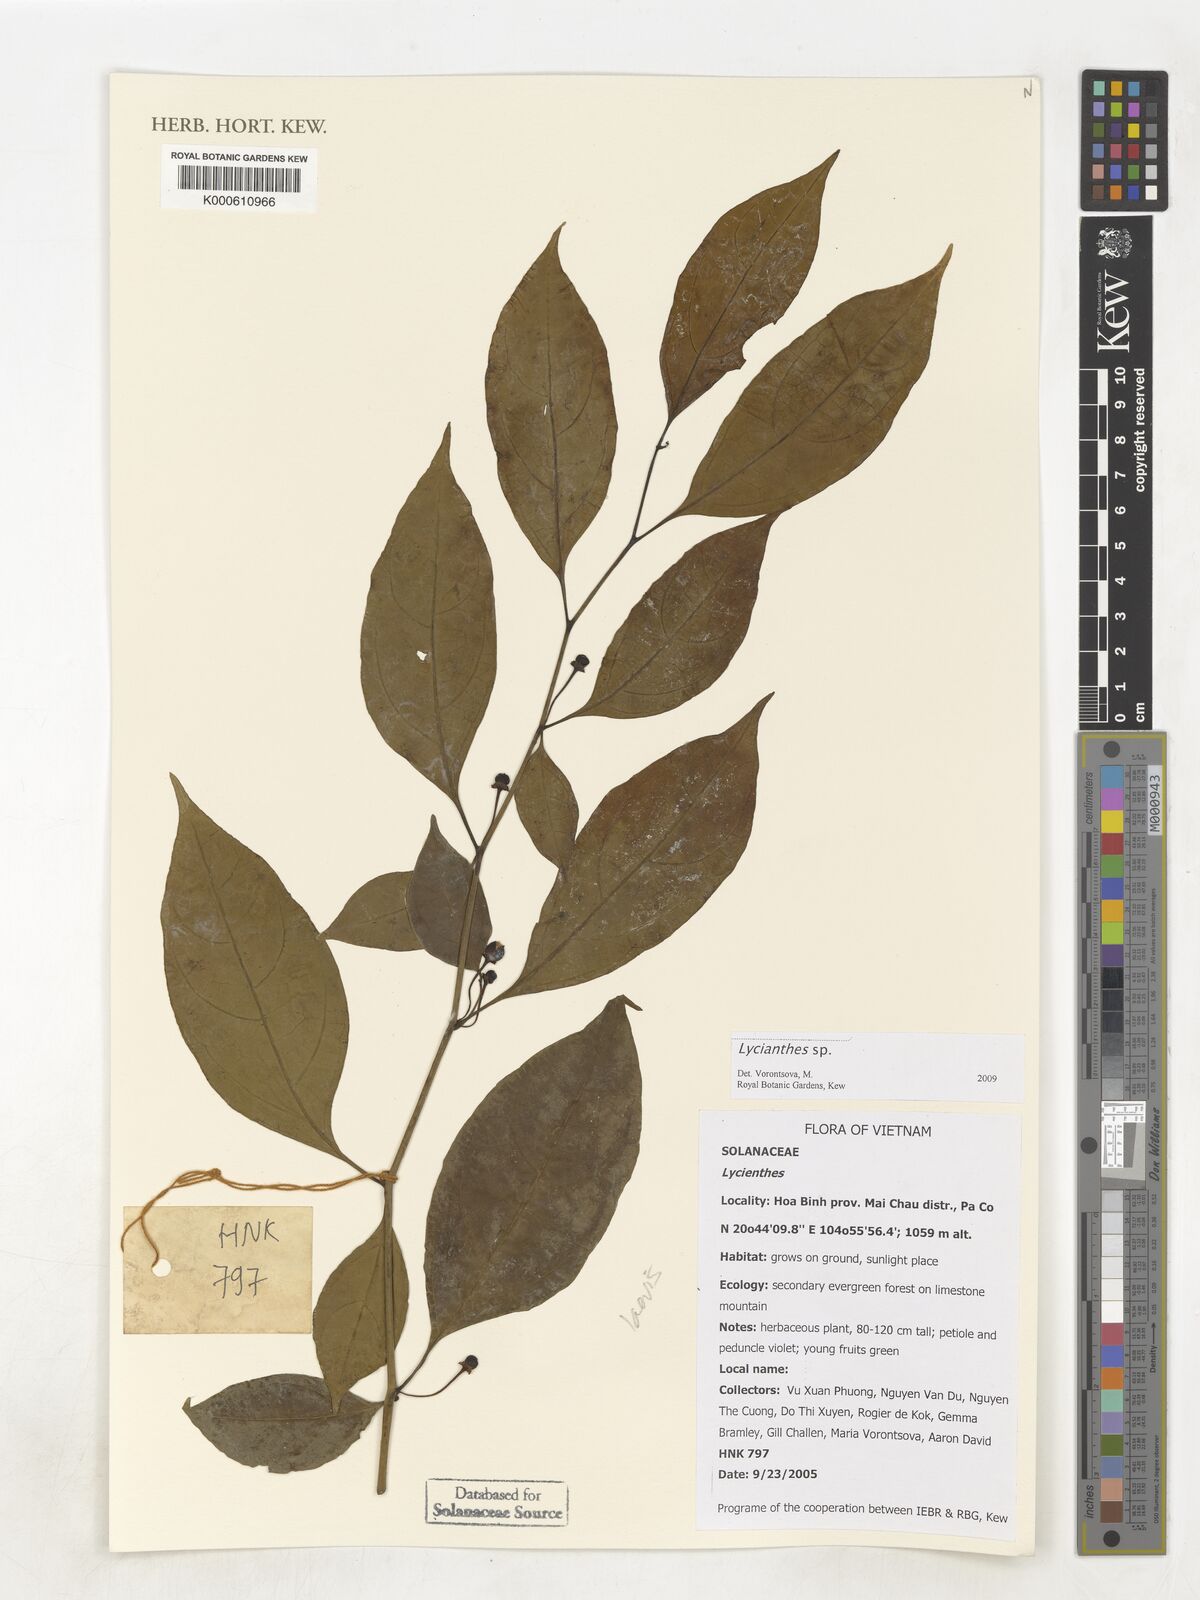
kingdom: Plantae
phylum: Tracheophyta
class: Magnoliopsida
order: Solanales
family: Solanaceae
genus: Lycianthes
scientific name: Lycianthes
